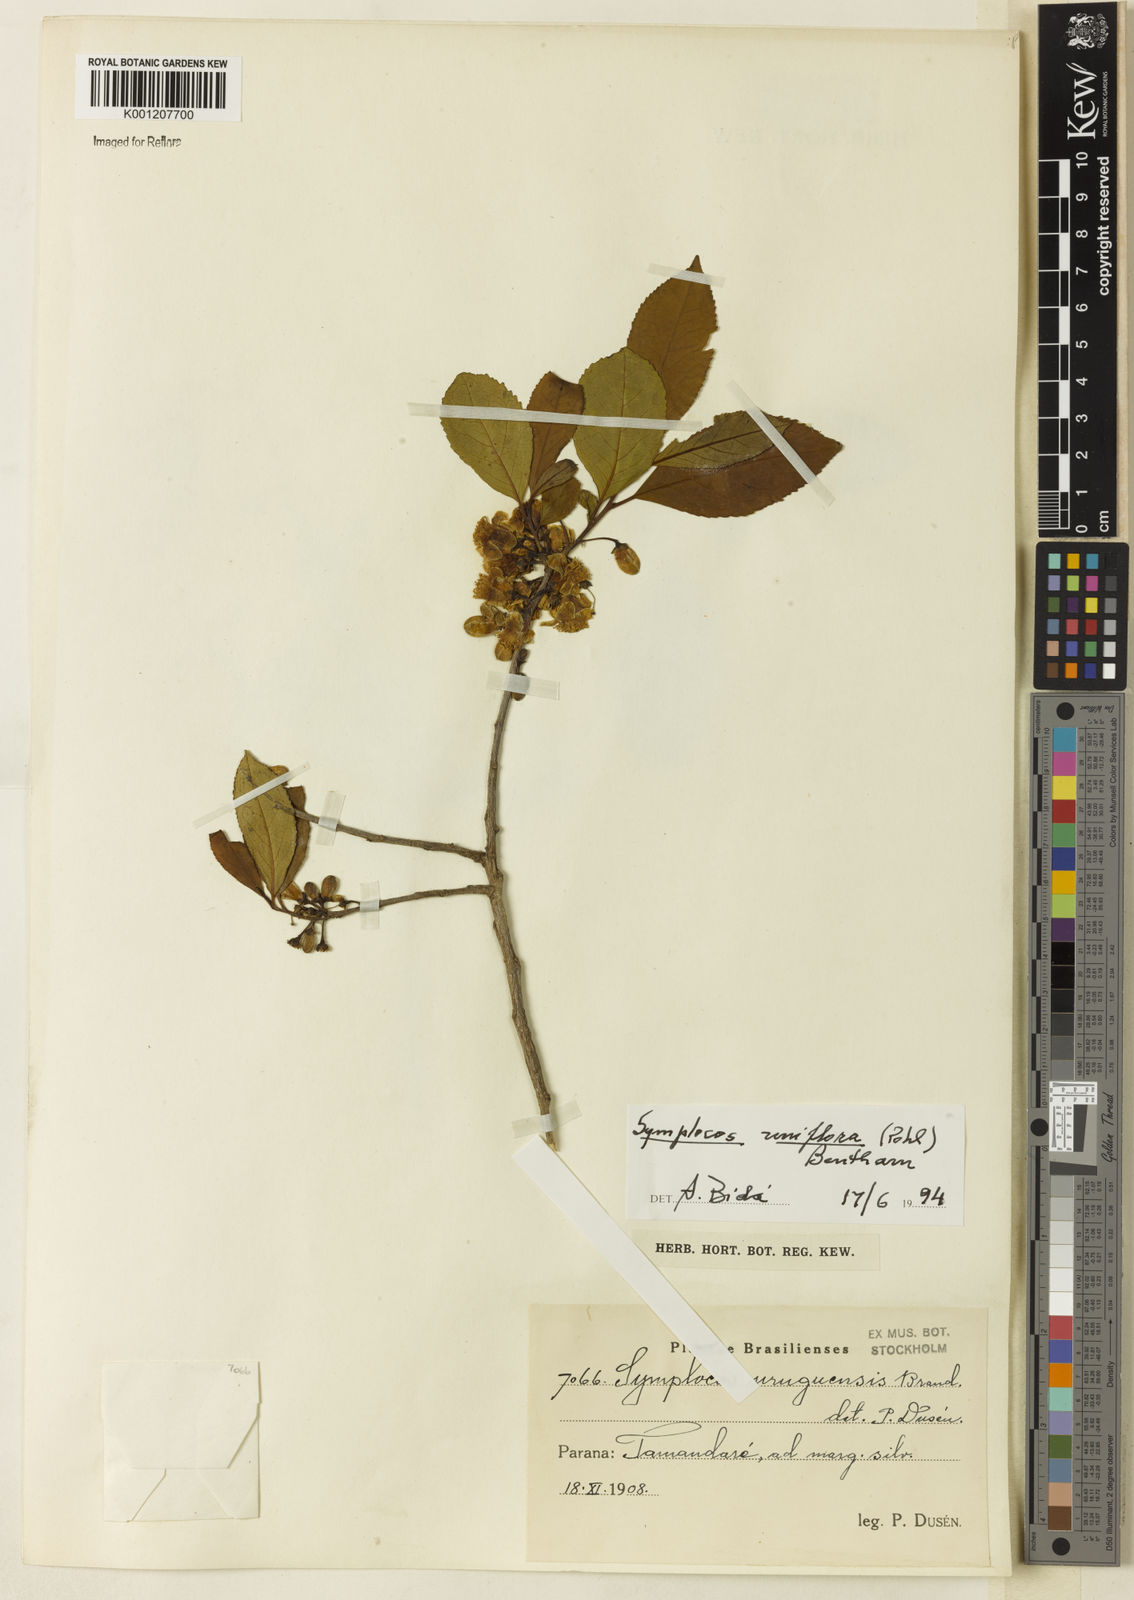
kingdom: Plantae
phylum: Tracheophyta
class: Magnoliopsida
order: Ericales
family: Symplocaceae
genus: Symplocos
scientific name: Symplocos uniflora
